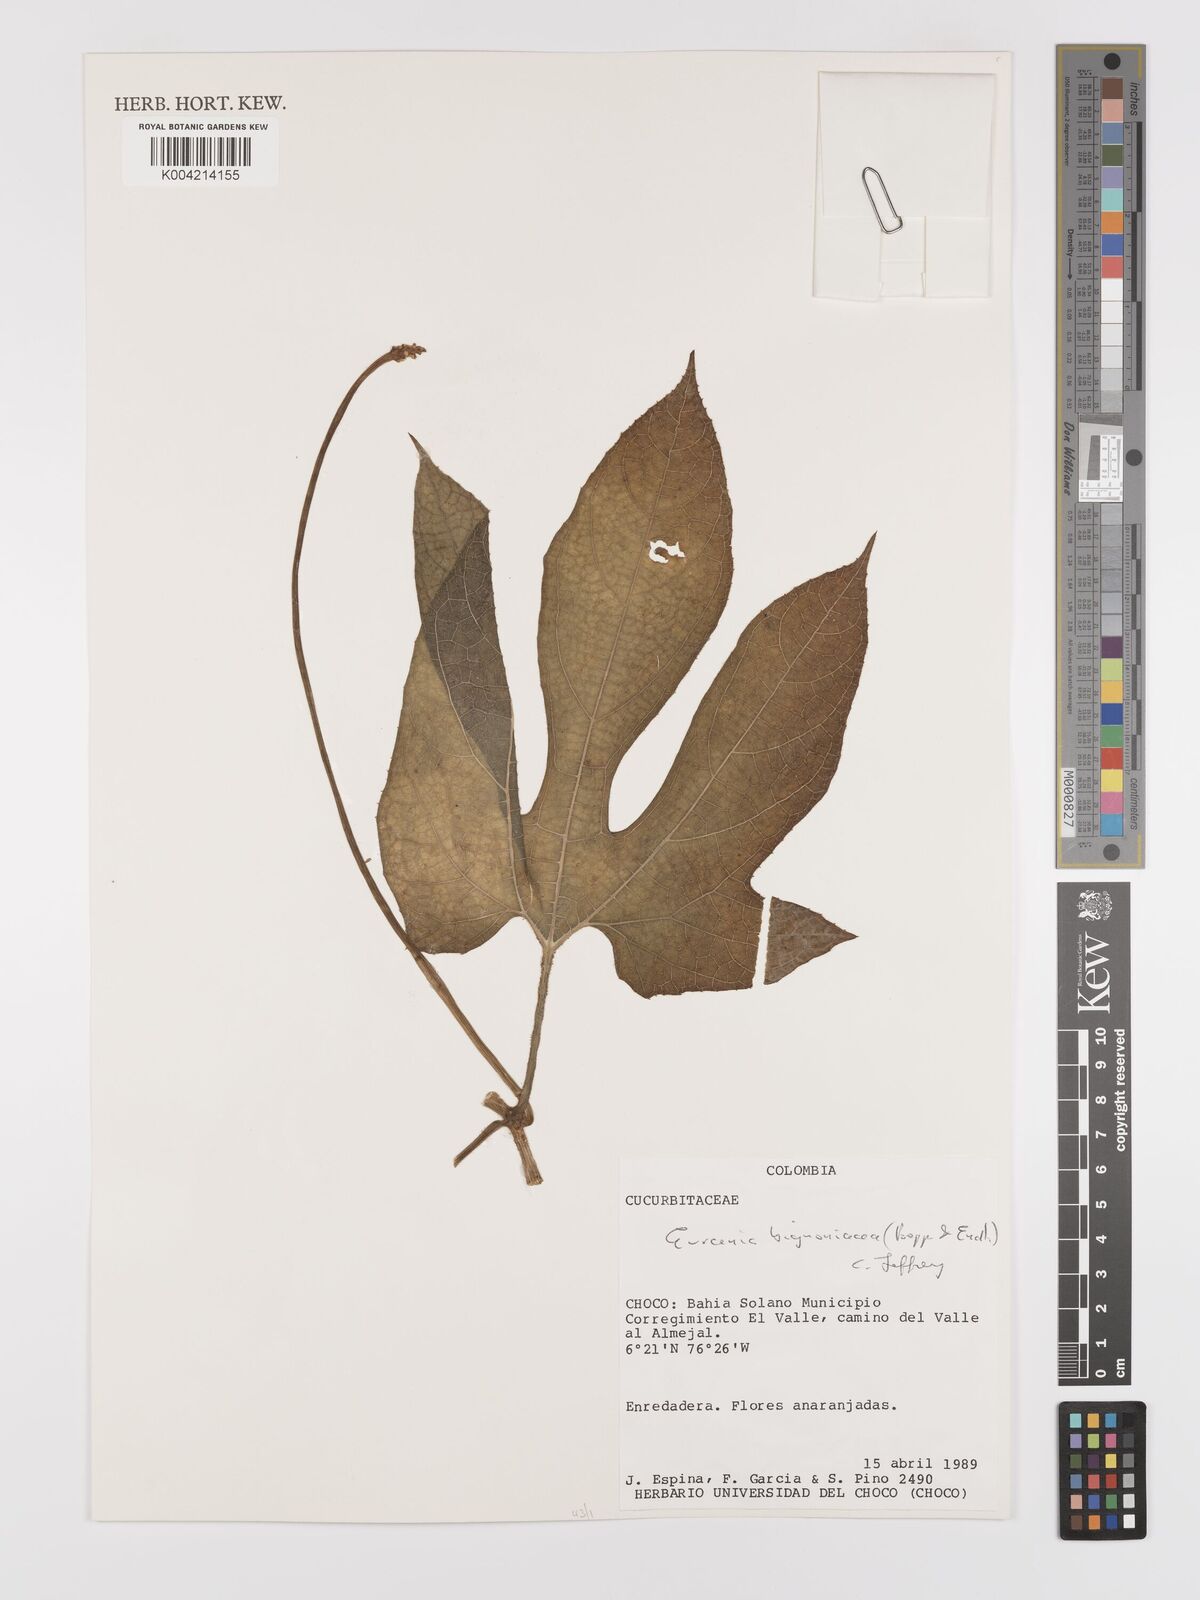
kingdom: Plantae
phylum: Tracheophyta
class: Magnoliopsida
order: Cucurbitales
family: Cucurbitaceae
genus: Gurania
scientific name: Gurania bignoniacea
